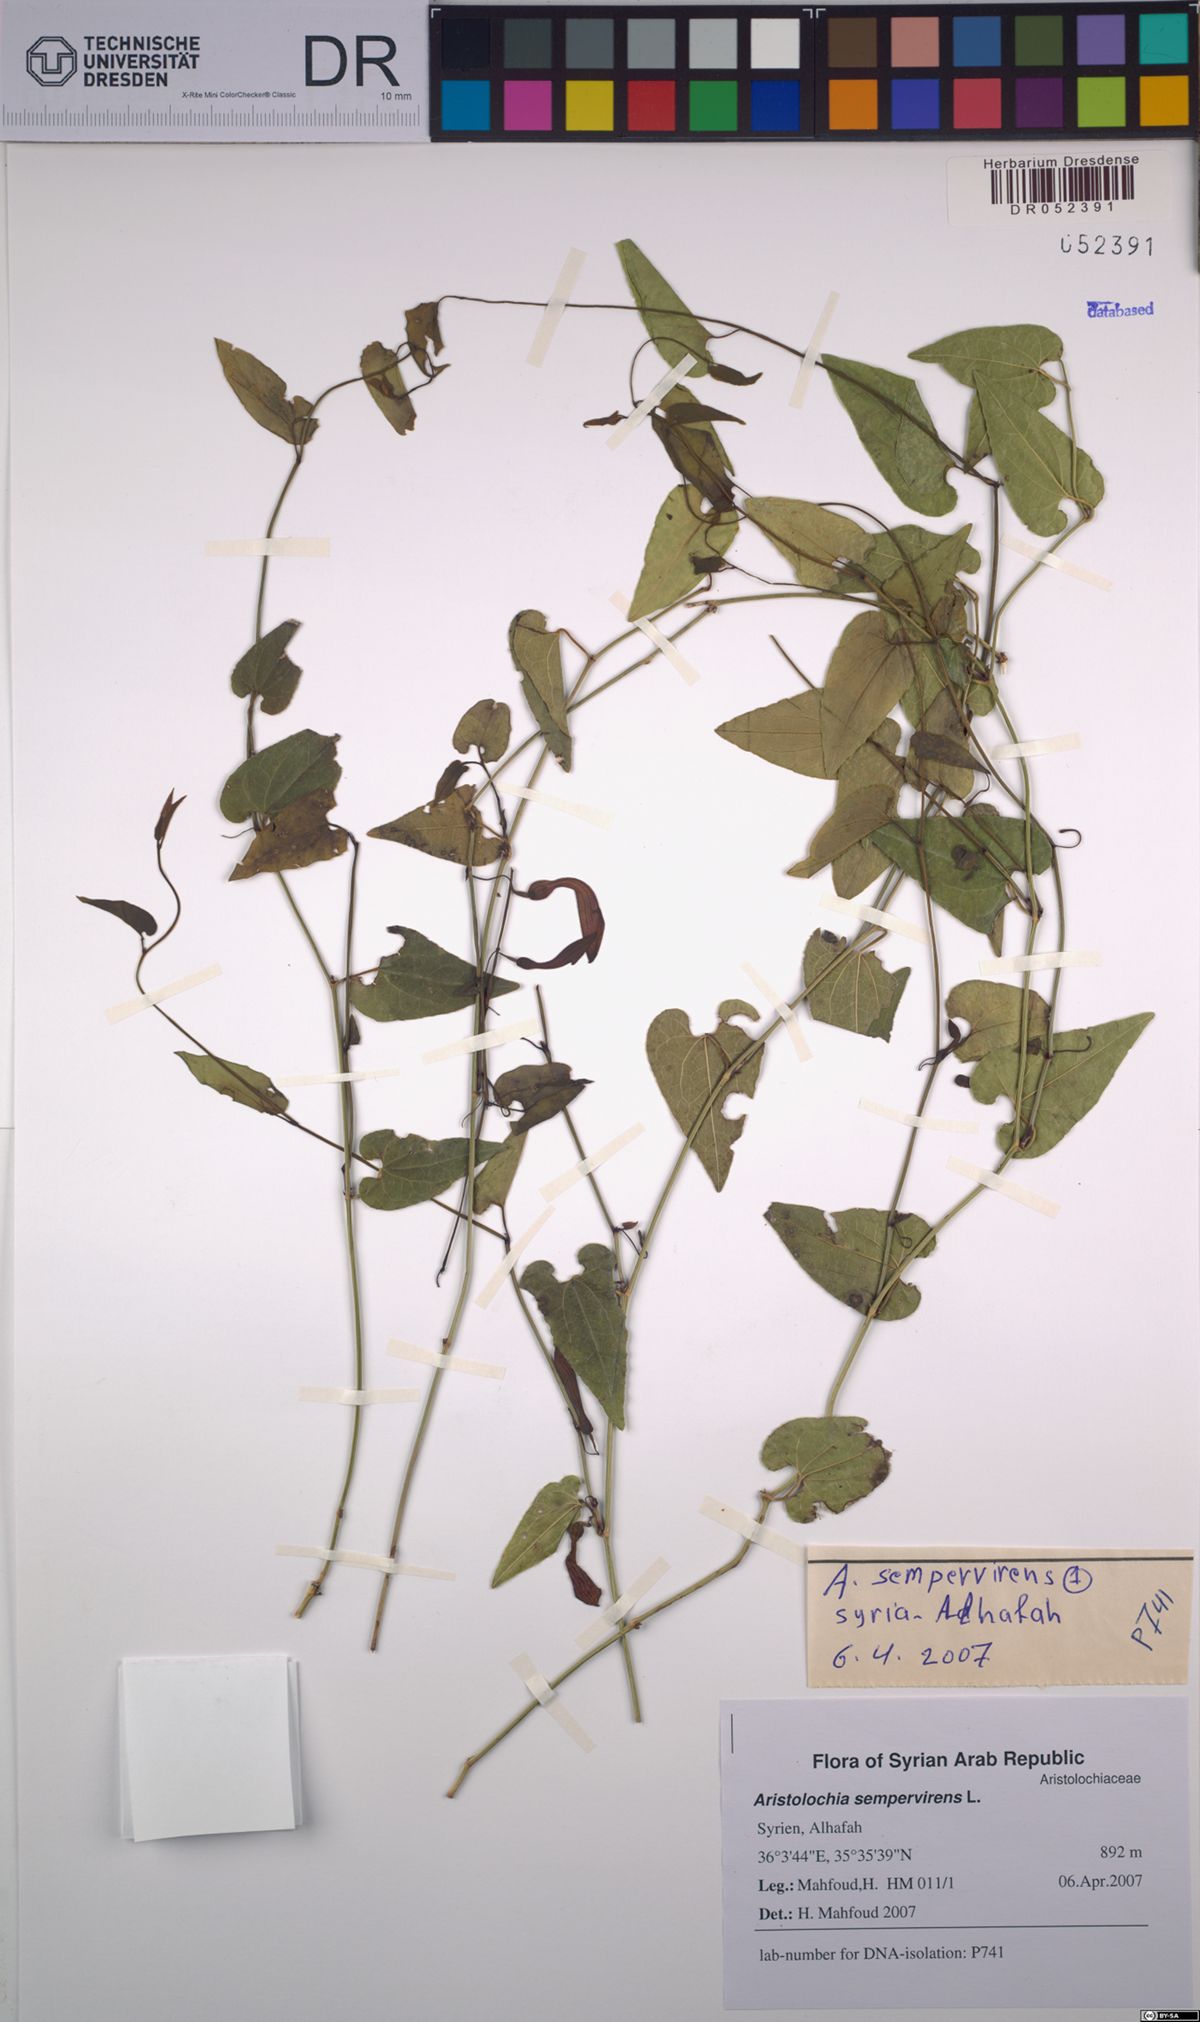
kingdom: Plantae
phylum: Tracheophyta
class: Magnoliopsida
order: Piperales
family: Aristolochiaceae
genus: Aristolochia
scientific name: Aristolochia sempervirens
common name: Long birthwort
